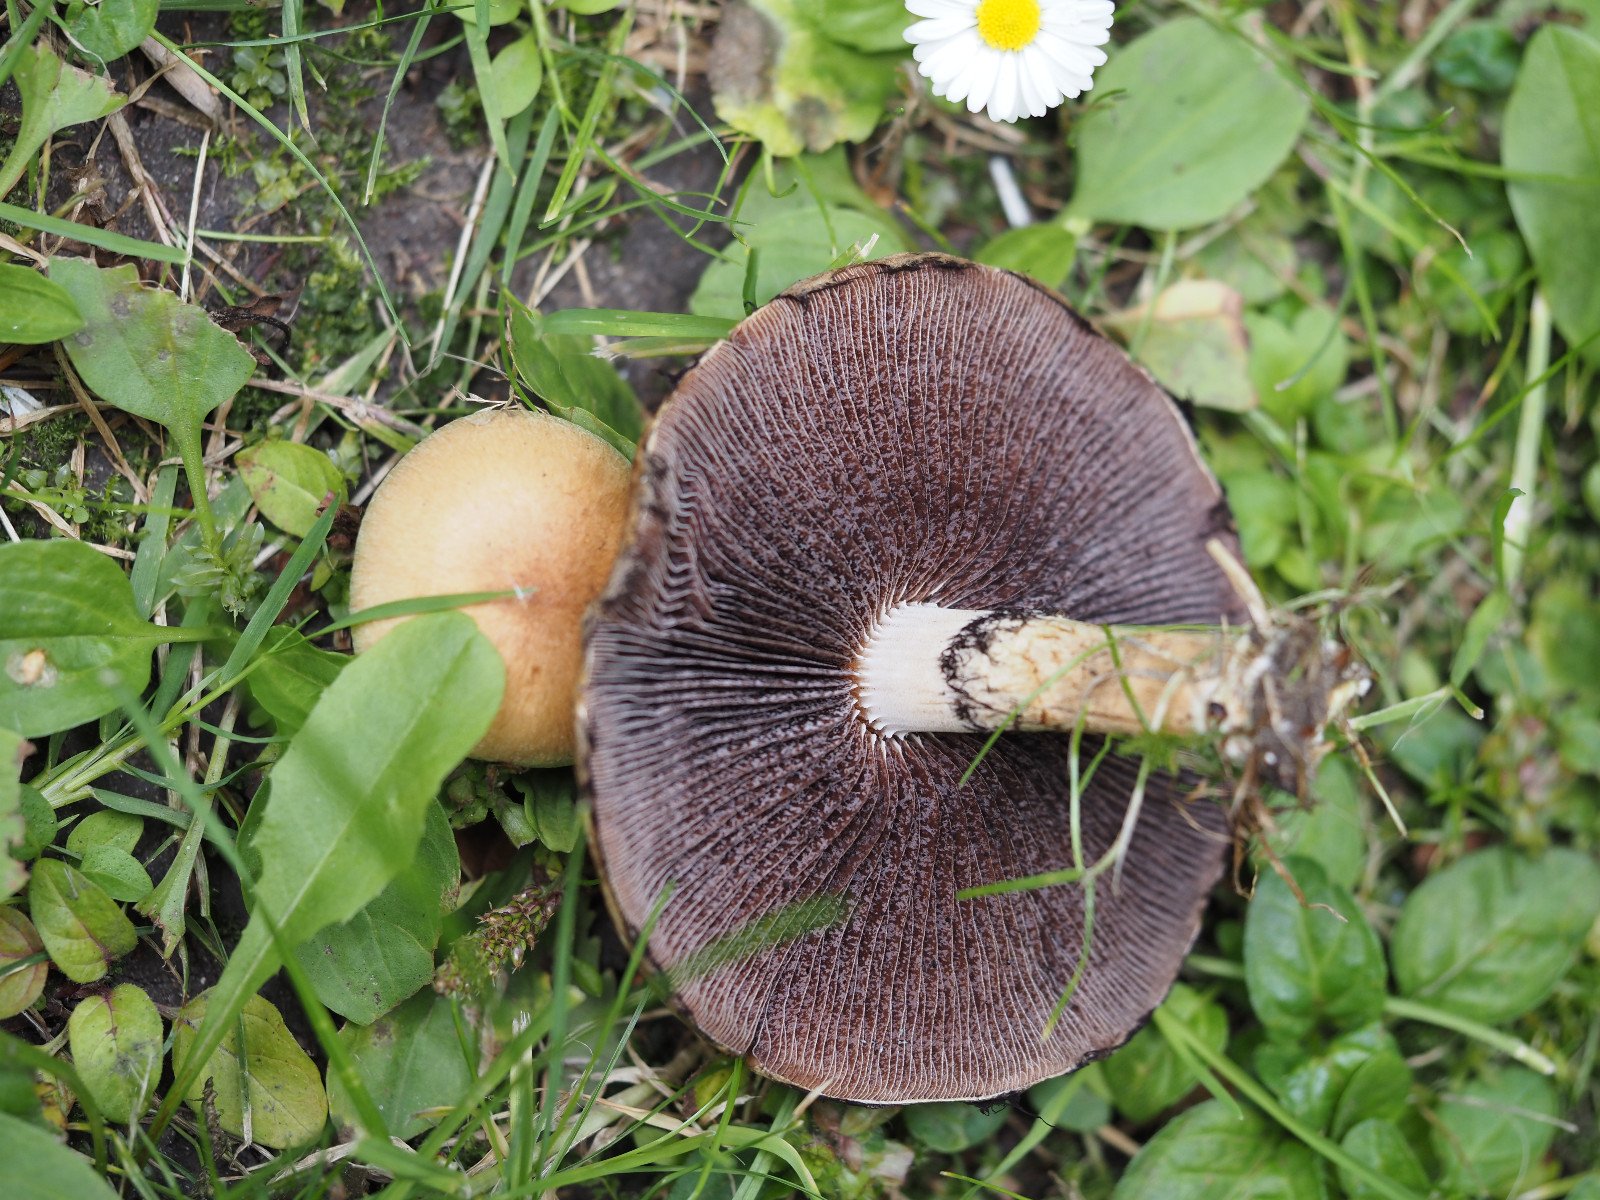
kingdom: Fungi
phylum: Basidiomycota
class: Agaricomycetes
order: Agaricales
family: Psathyrellaceae
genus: Lacrymaria
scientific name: Lacrymaria lacrymabunda
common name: grædende mørkhat
